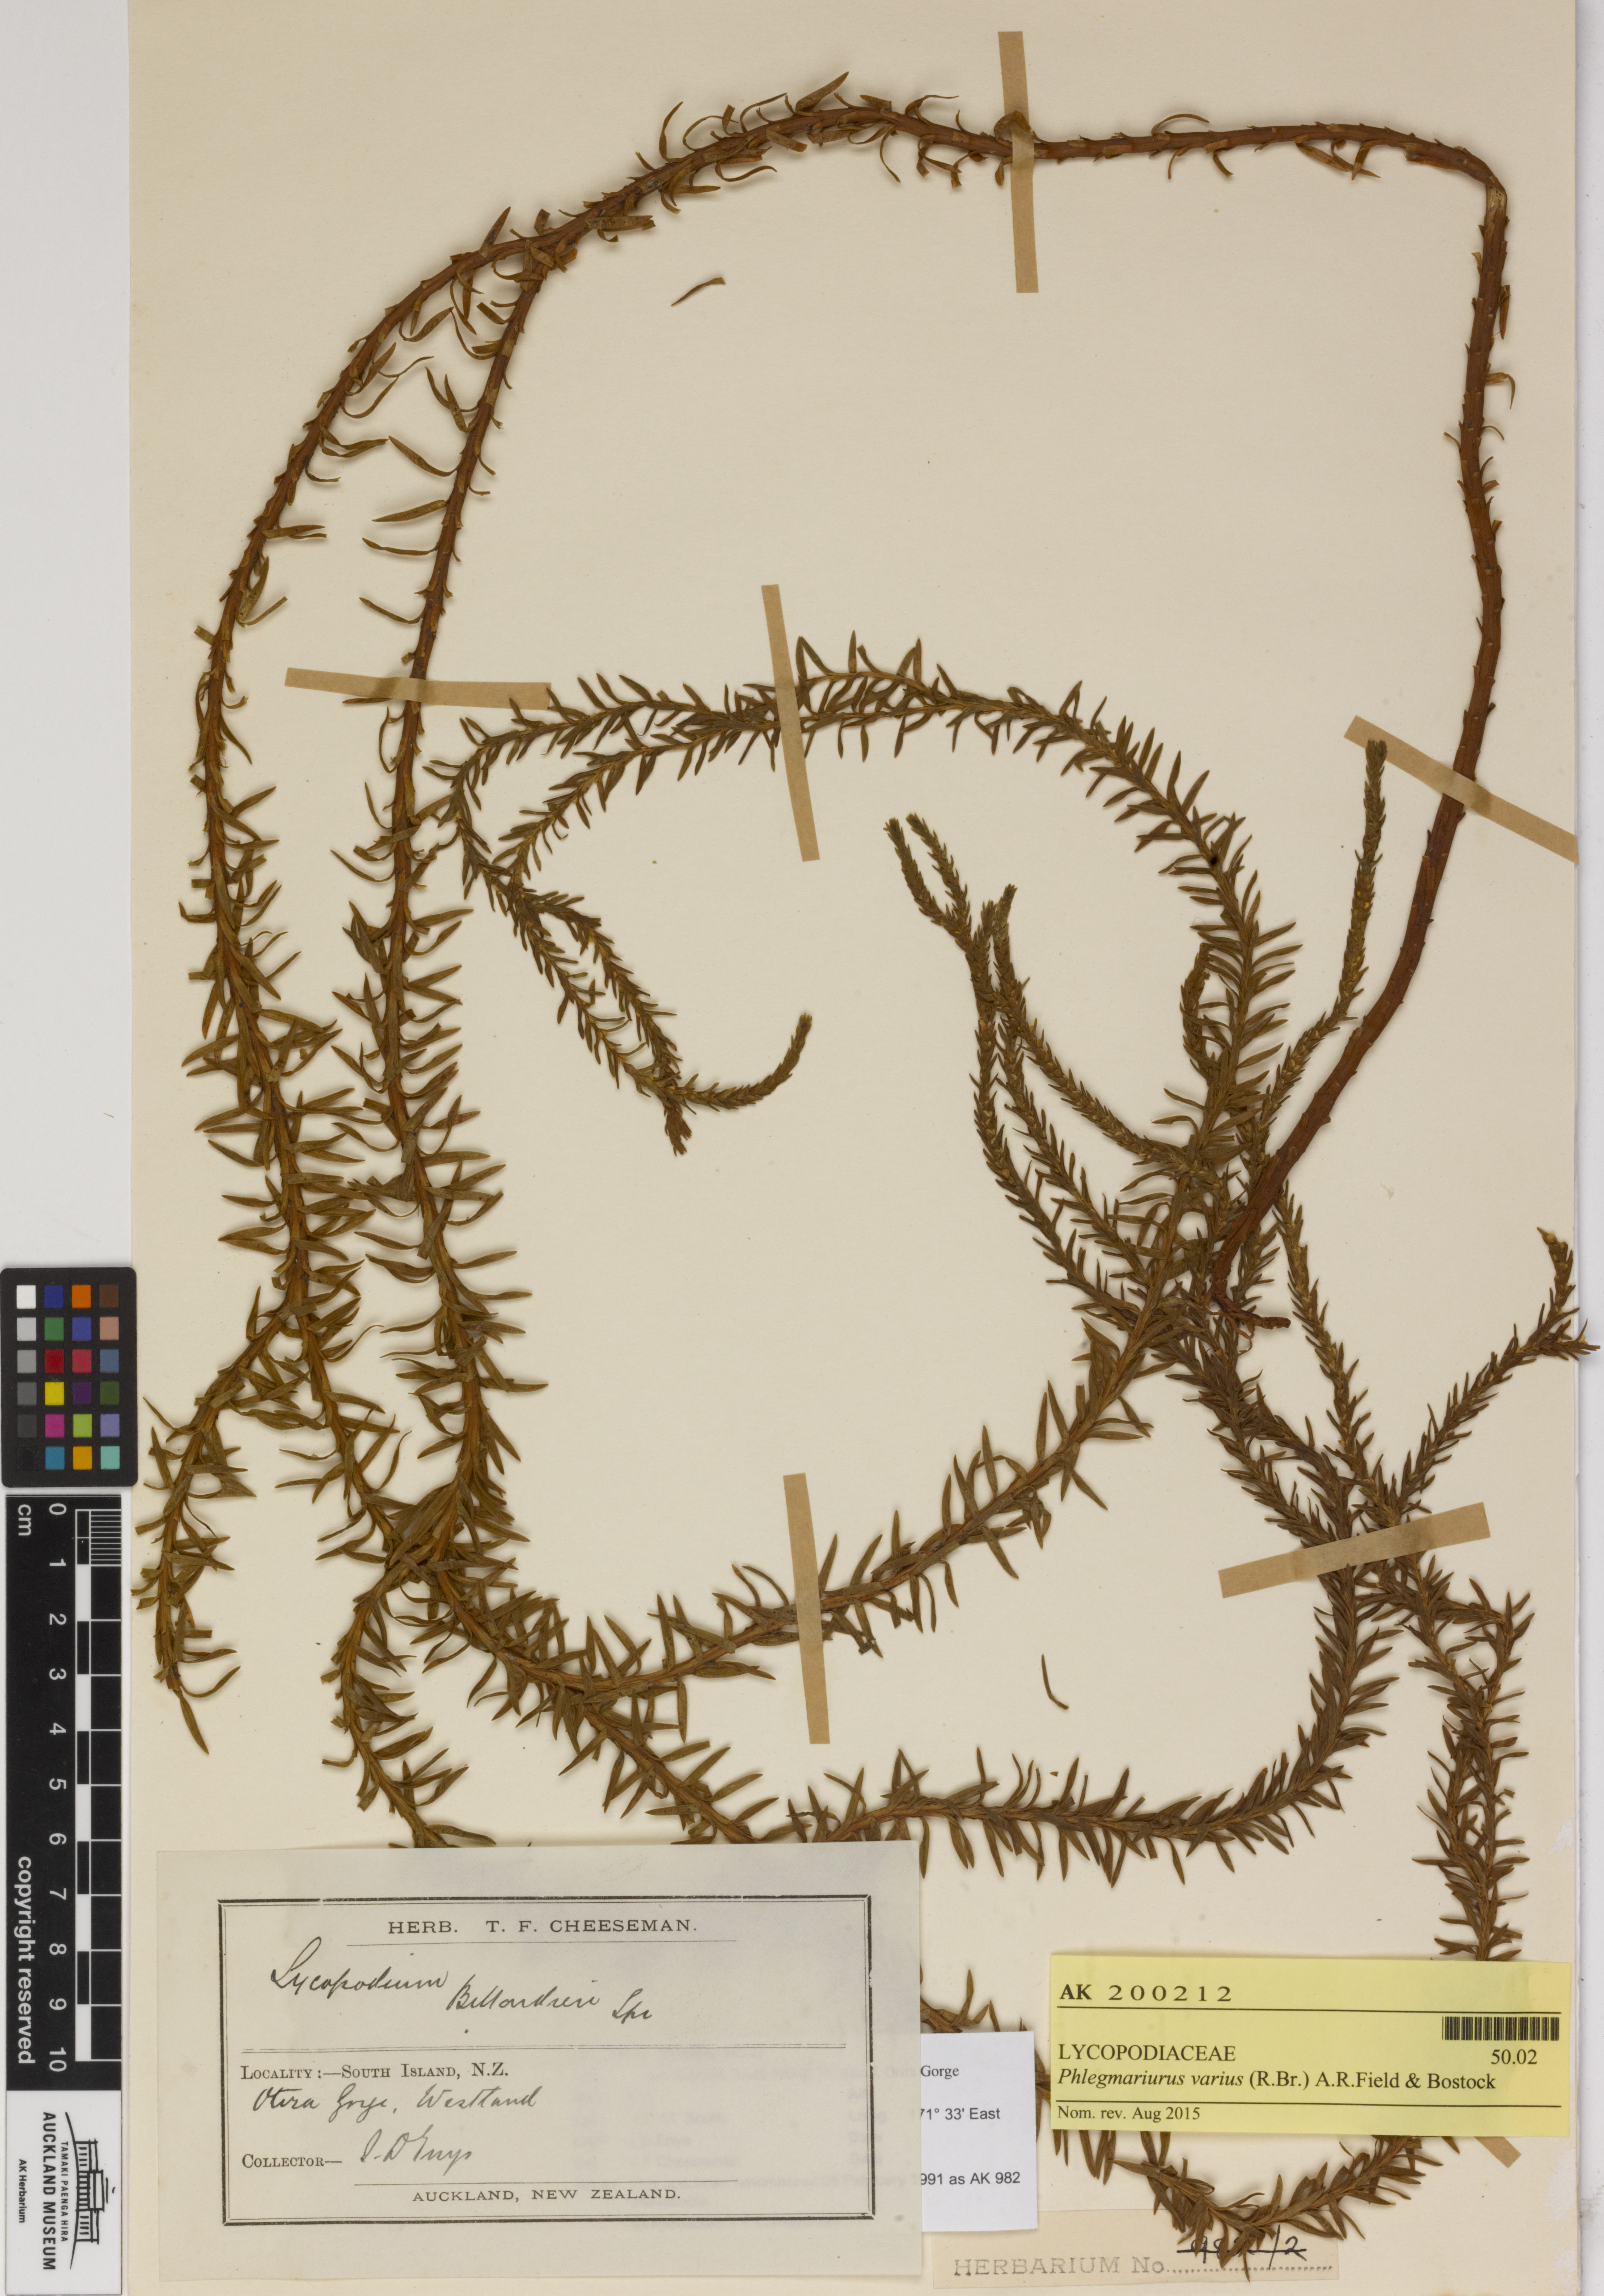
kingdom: Plantae
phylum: Tracheophyta
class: Lycopodiopsida
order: Lycopodiales
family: Lycopodiaceae
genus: Phlegmariurus
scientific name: Phlegmariurus varius
